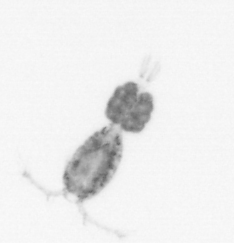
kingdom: Animalia
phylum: Arthropoda
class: Copepoda
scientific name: Copepoda
